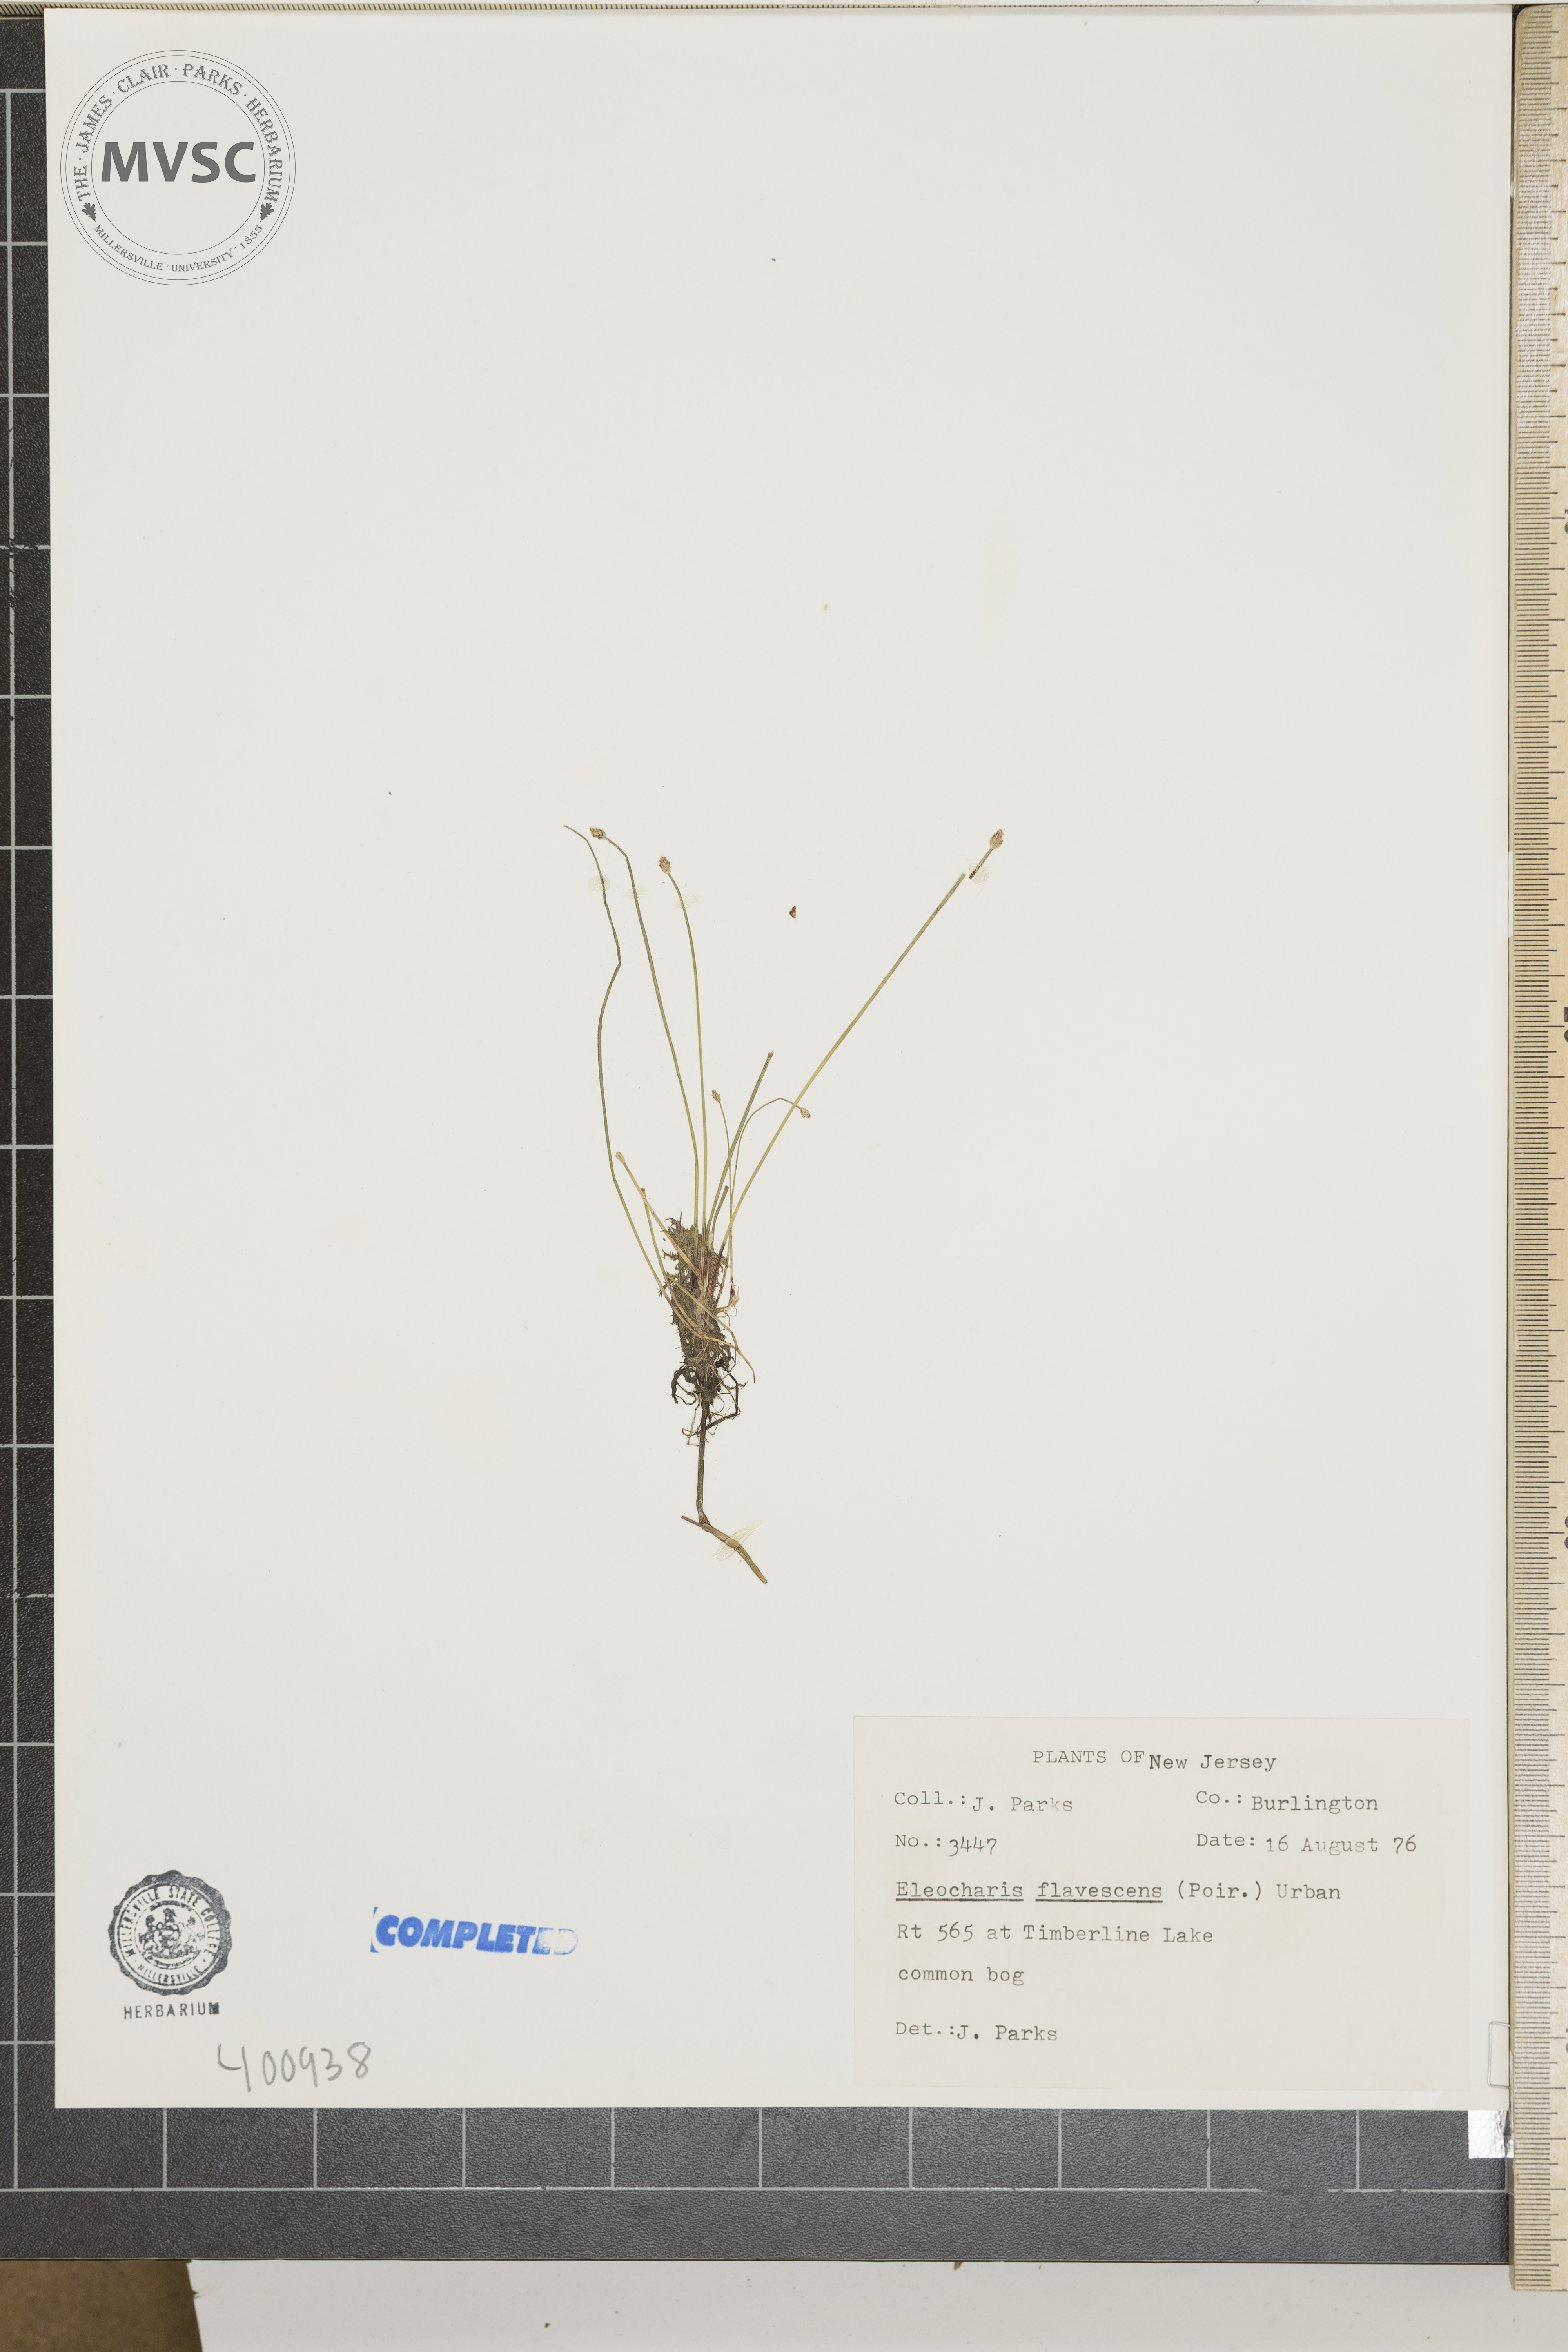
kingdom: Plantae
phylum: Tracheophyta
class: Liliopsida
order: Poales
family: Cyperaceae
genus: Eleocharis
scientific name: Eleocharis flavescens
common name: Yellow spikerush
